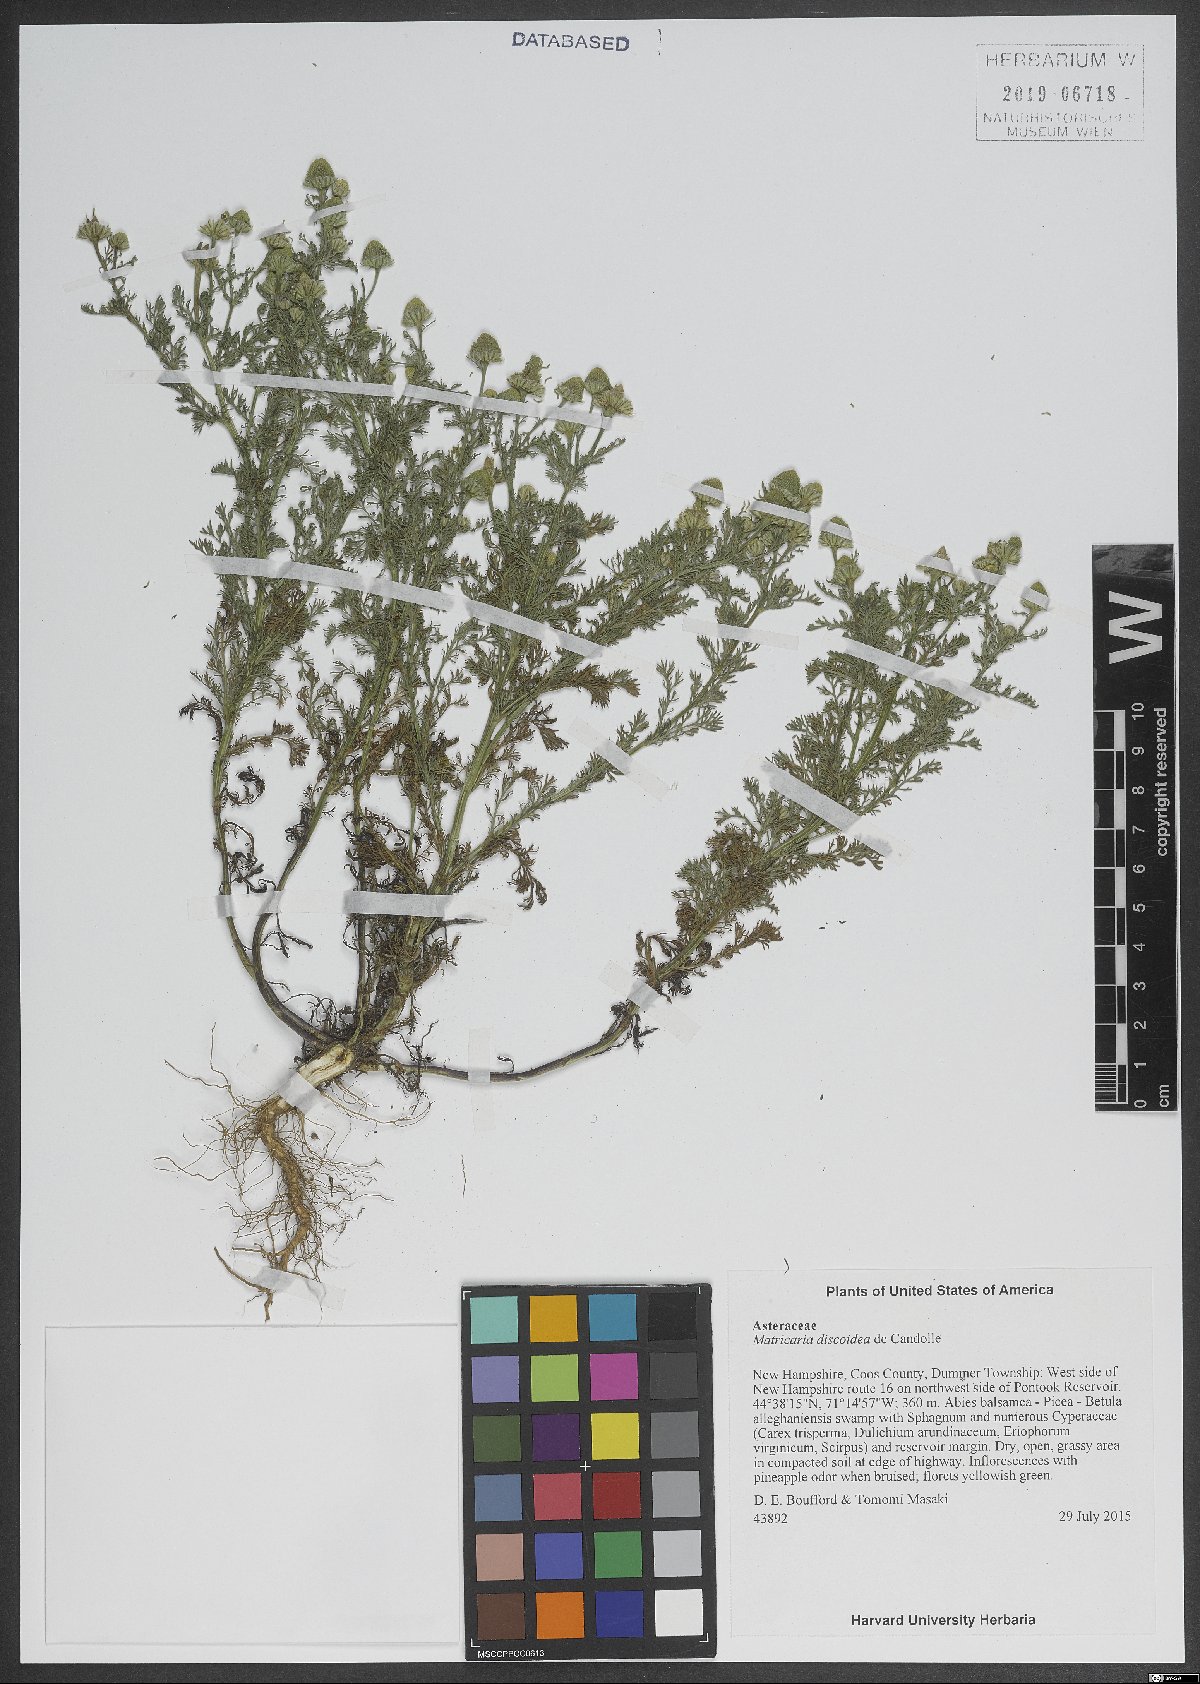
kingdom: Plantae
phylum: Tracheophyta
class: Magnoliopsida
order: Asterales
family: Asteraceae
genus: Matricaria
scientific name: Matricaria discoidea
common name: Disc mayweed
